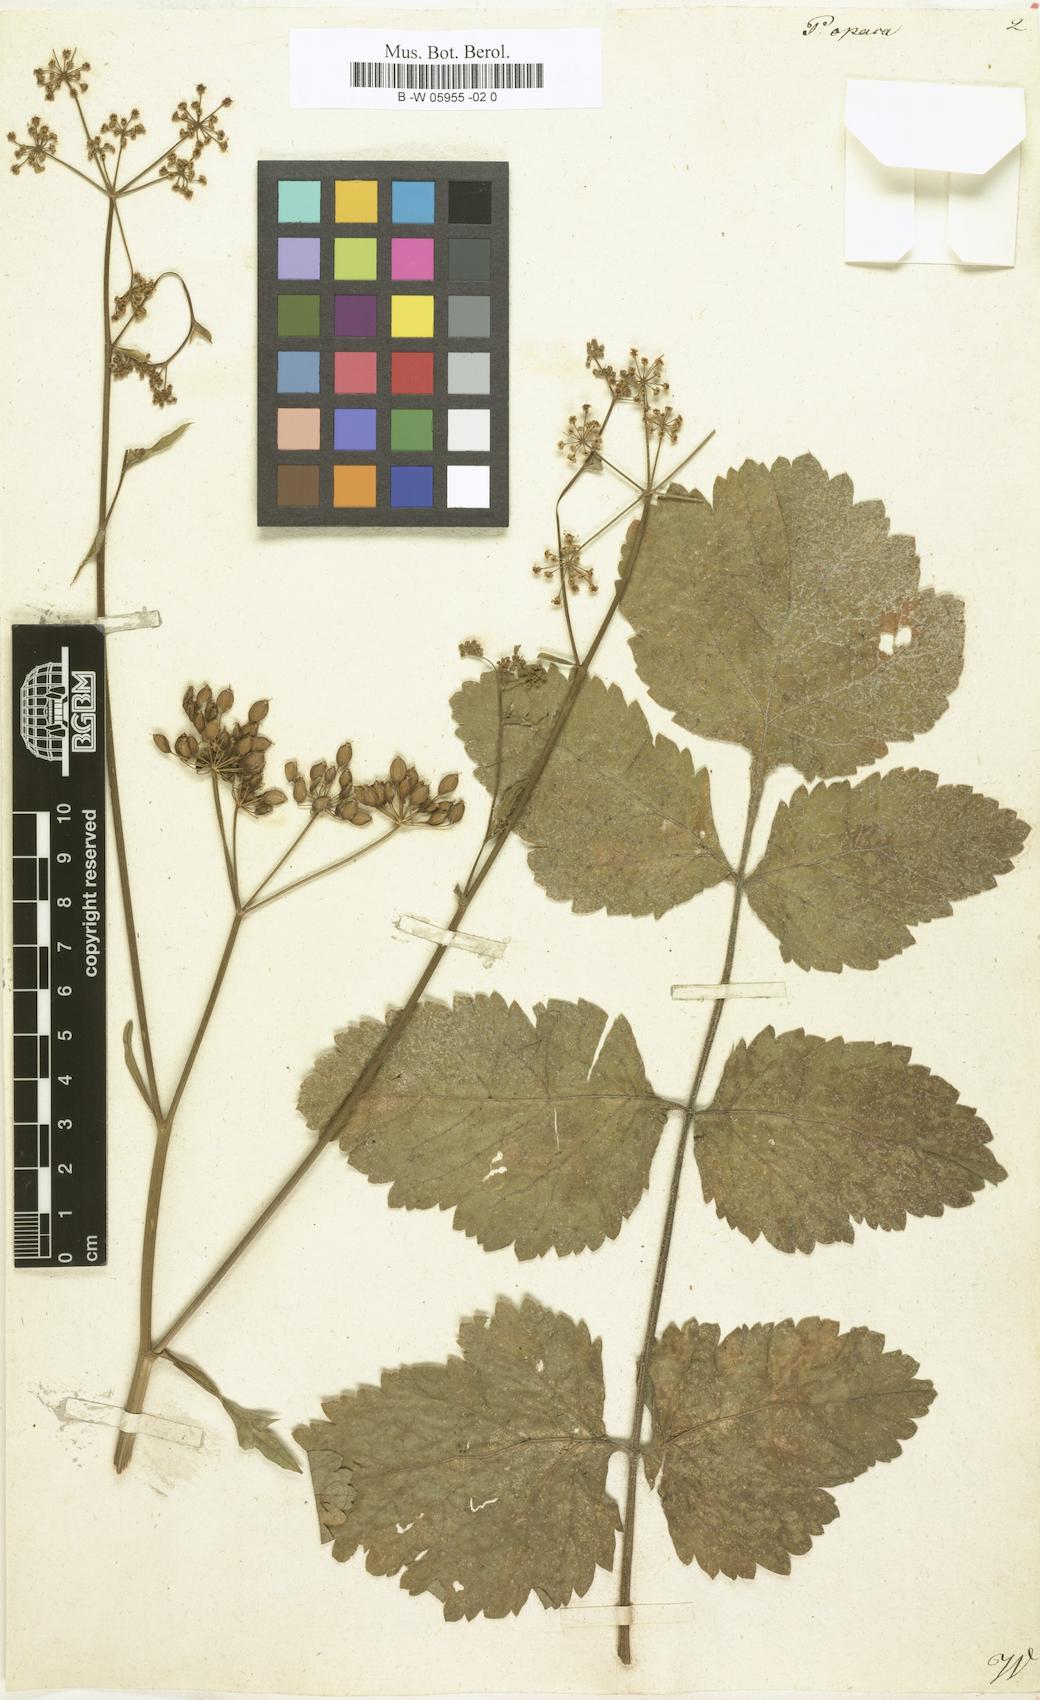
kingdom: Plantae
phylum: Tracheophyta
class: Magnoliopsida
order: Apiales
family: Apiaceae
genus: Pastinaca
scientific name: Pastinaca sativa
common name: Wild parsnip
